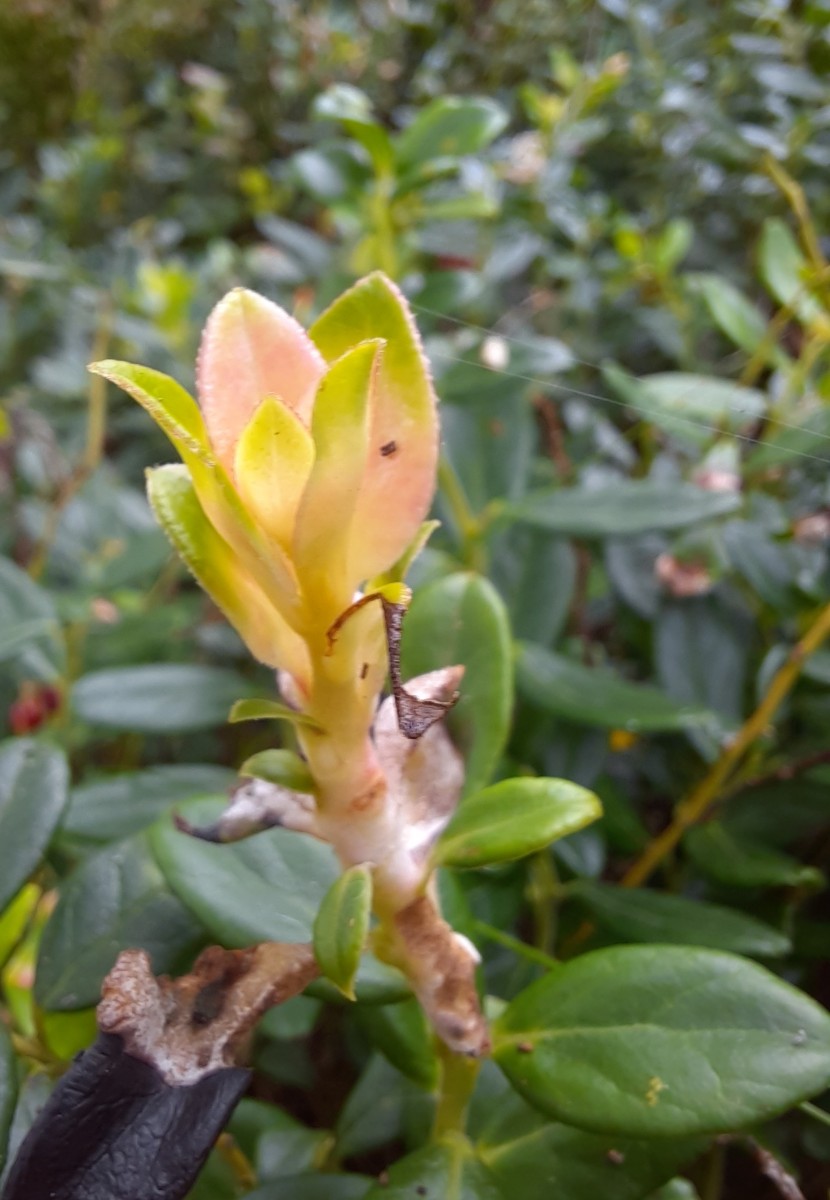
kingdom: Fungi
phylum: Basidiomycota
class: Exobasidiomycetes
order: Exobasidiales
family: Exobasidiaceae
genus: Exobasidium
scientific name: Exobasidium vaccinii
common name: tyttebærblad-bøllesvamp
